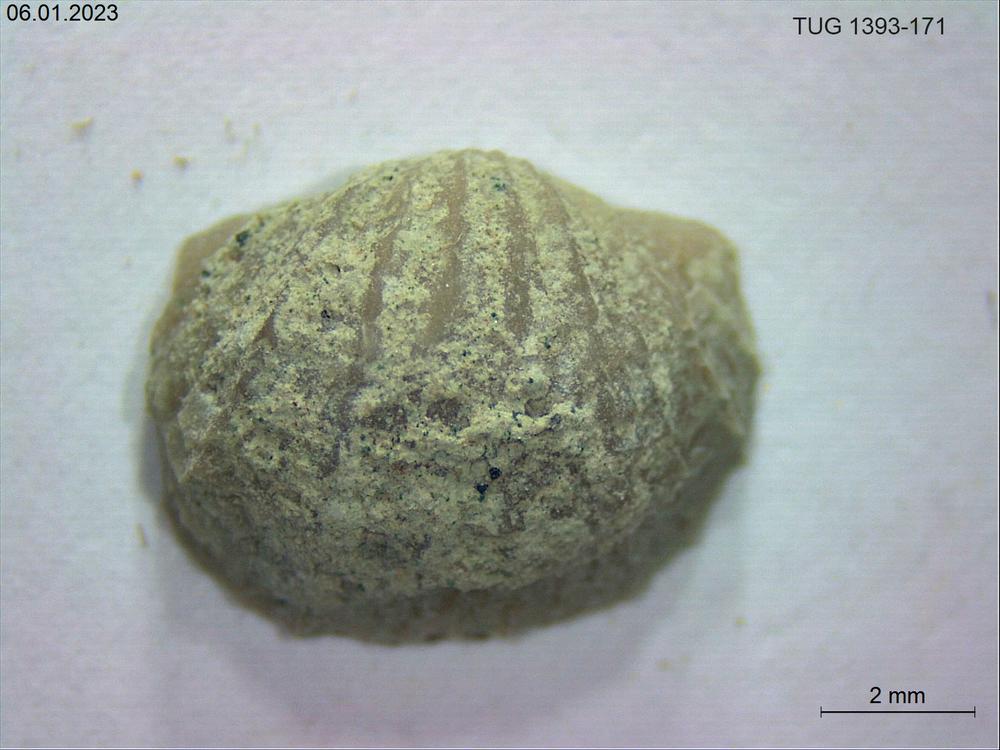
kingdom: Animalia
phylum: Brachiopoda
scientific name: Brachiopoda
